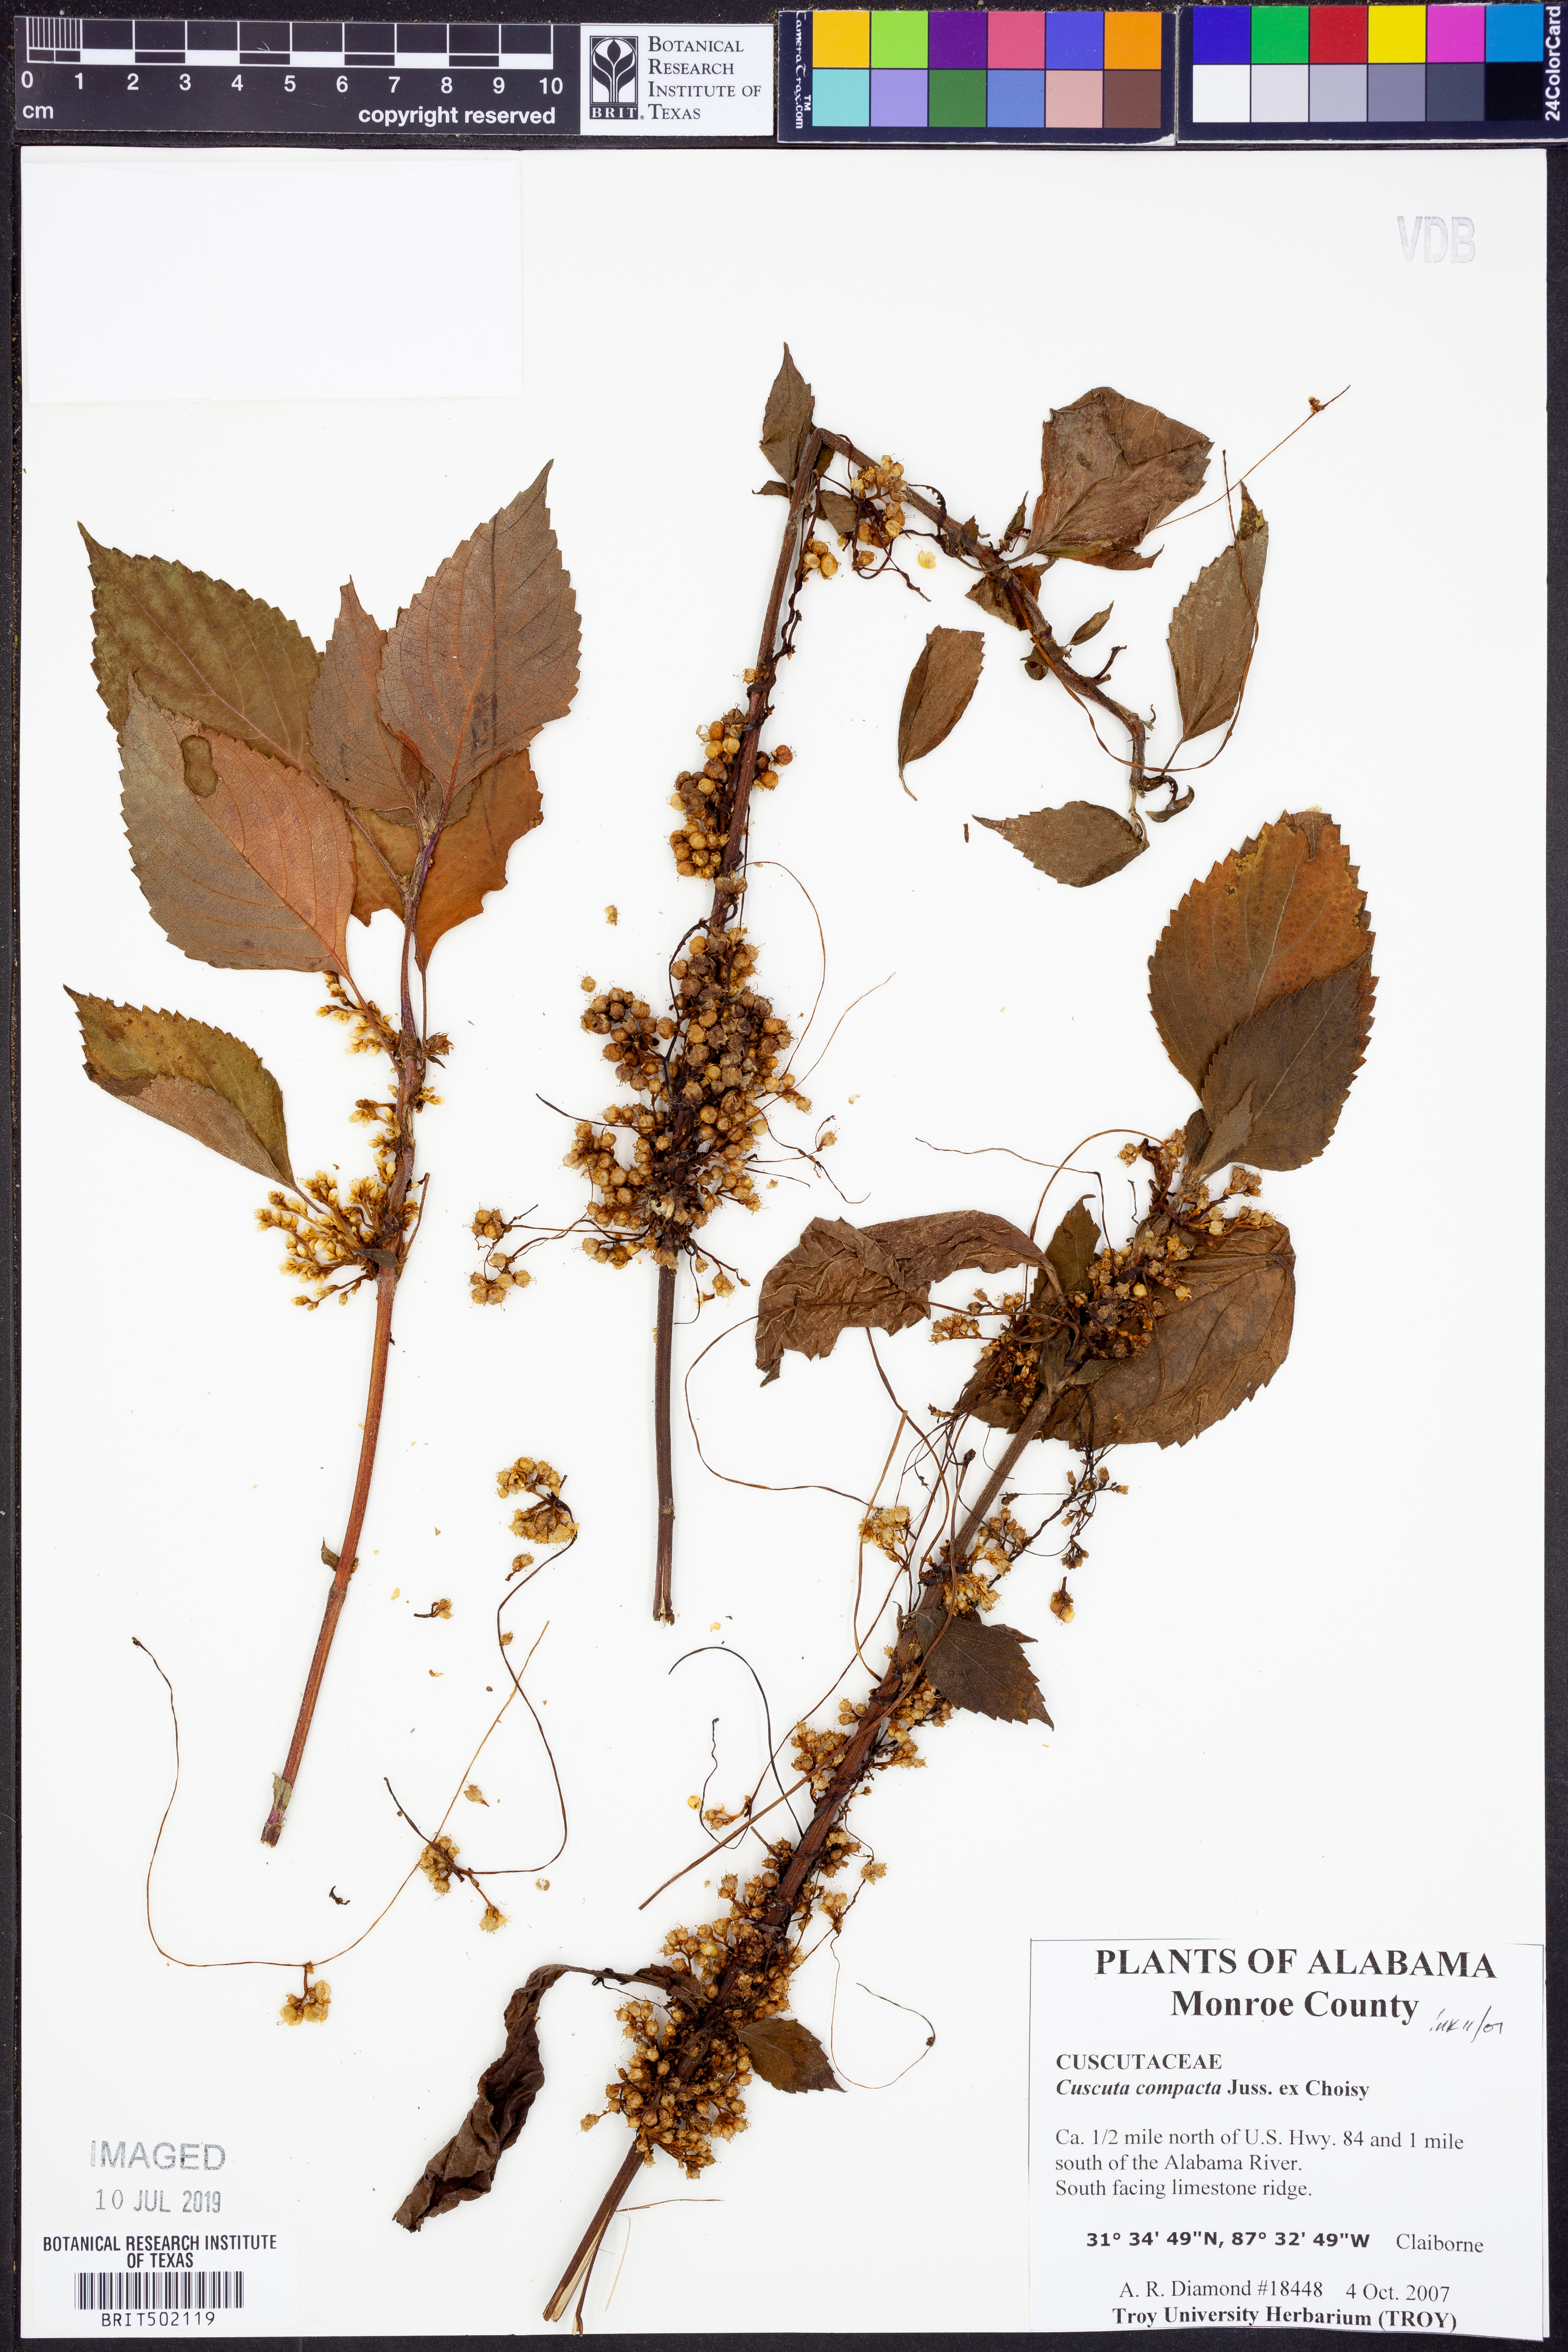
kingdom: Plantae
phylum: Tracheophyta
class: Magnoliopsida
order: Solanales
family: Convolvulaceae
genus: Cuscuta
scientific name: Cuscuta compacta
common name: Compact dodder
